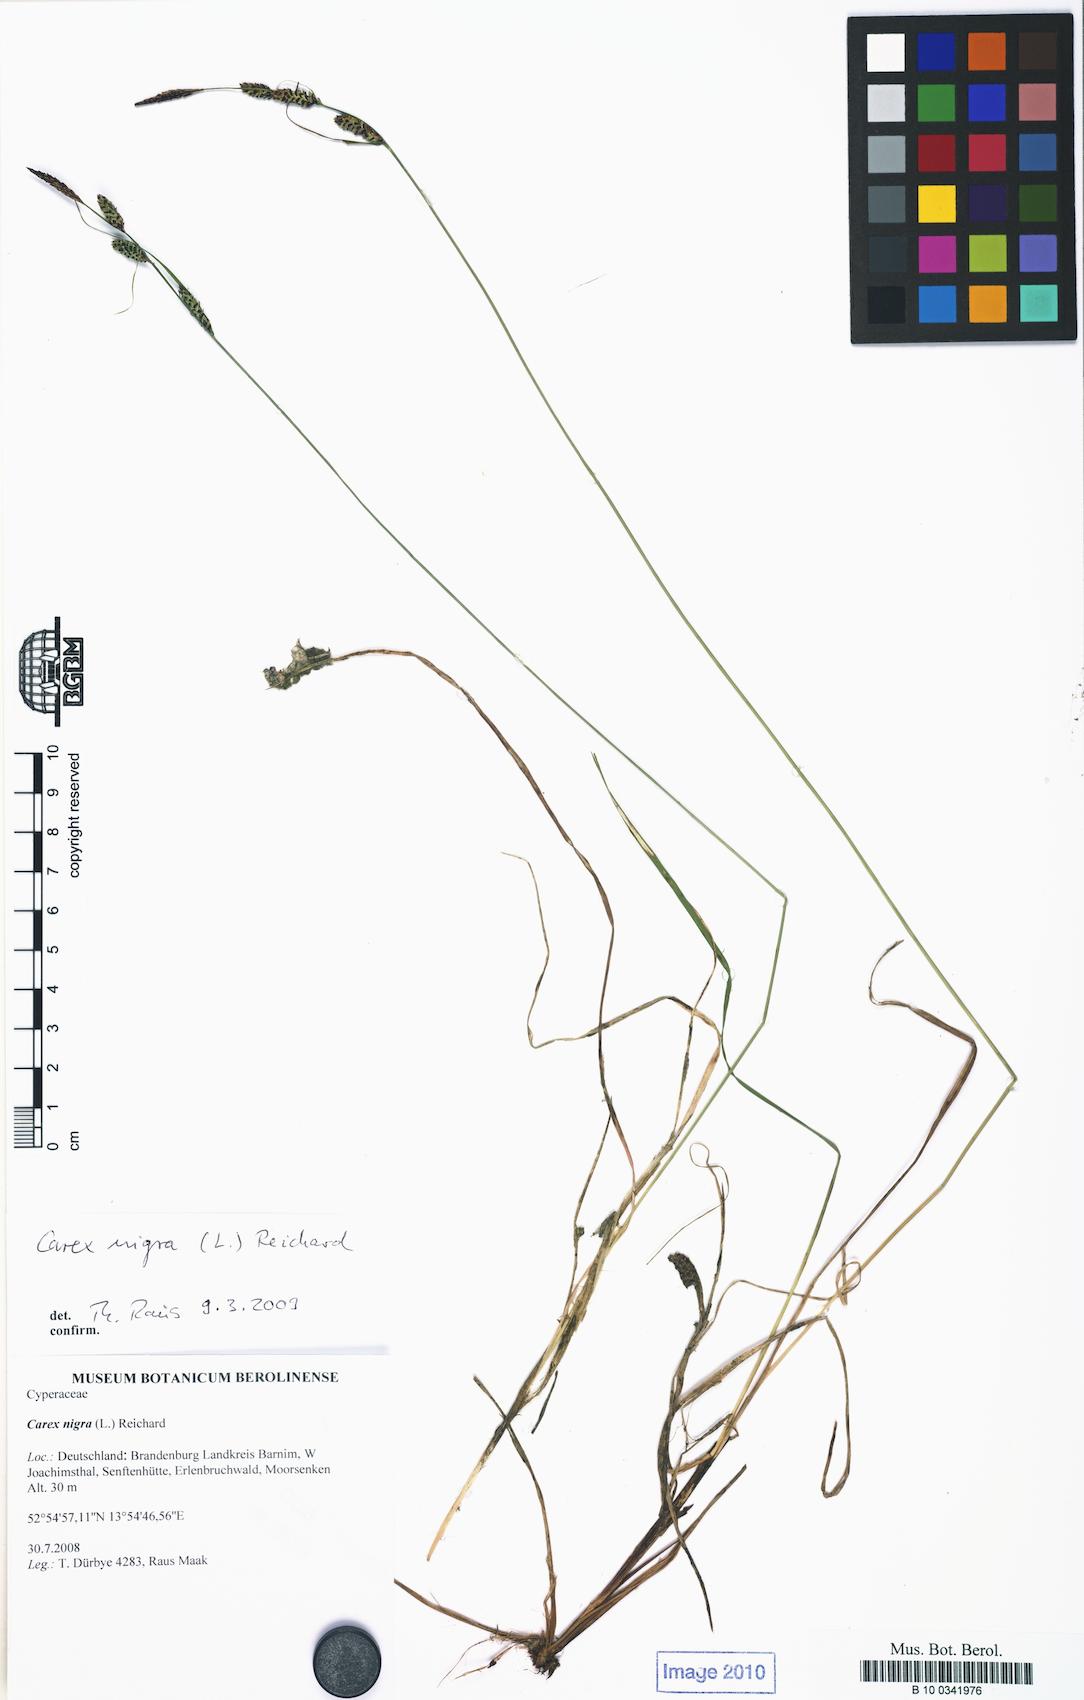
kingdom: Plantae
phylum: Tracheophyta
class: Liliopsida
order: Poales
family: Cyperaceae
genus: Carex
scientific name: Carex nigra
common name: Common sedge
